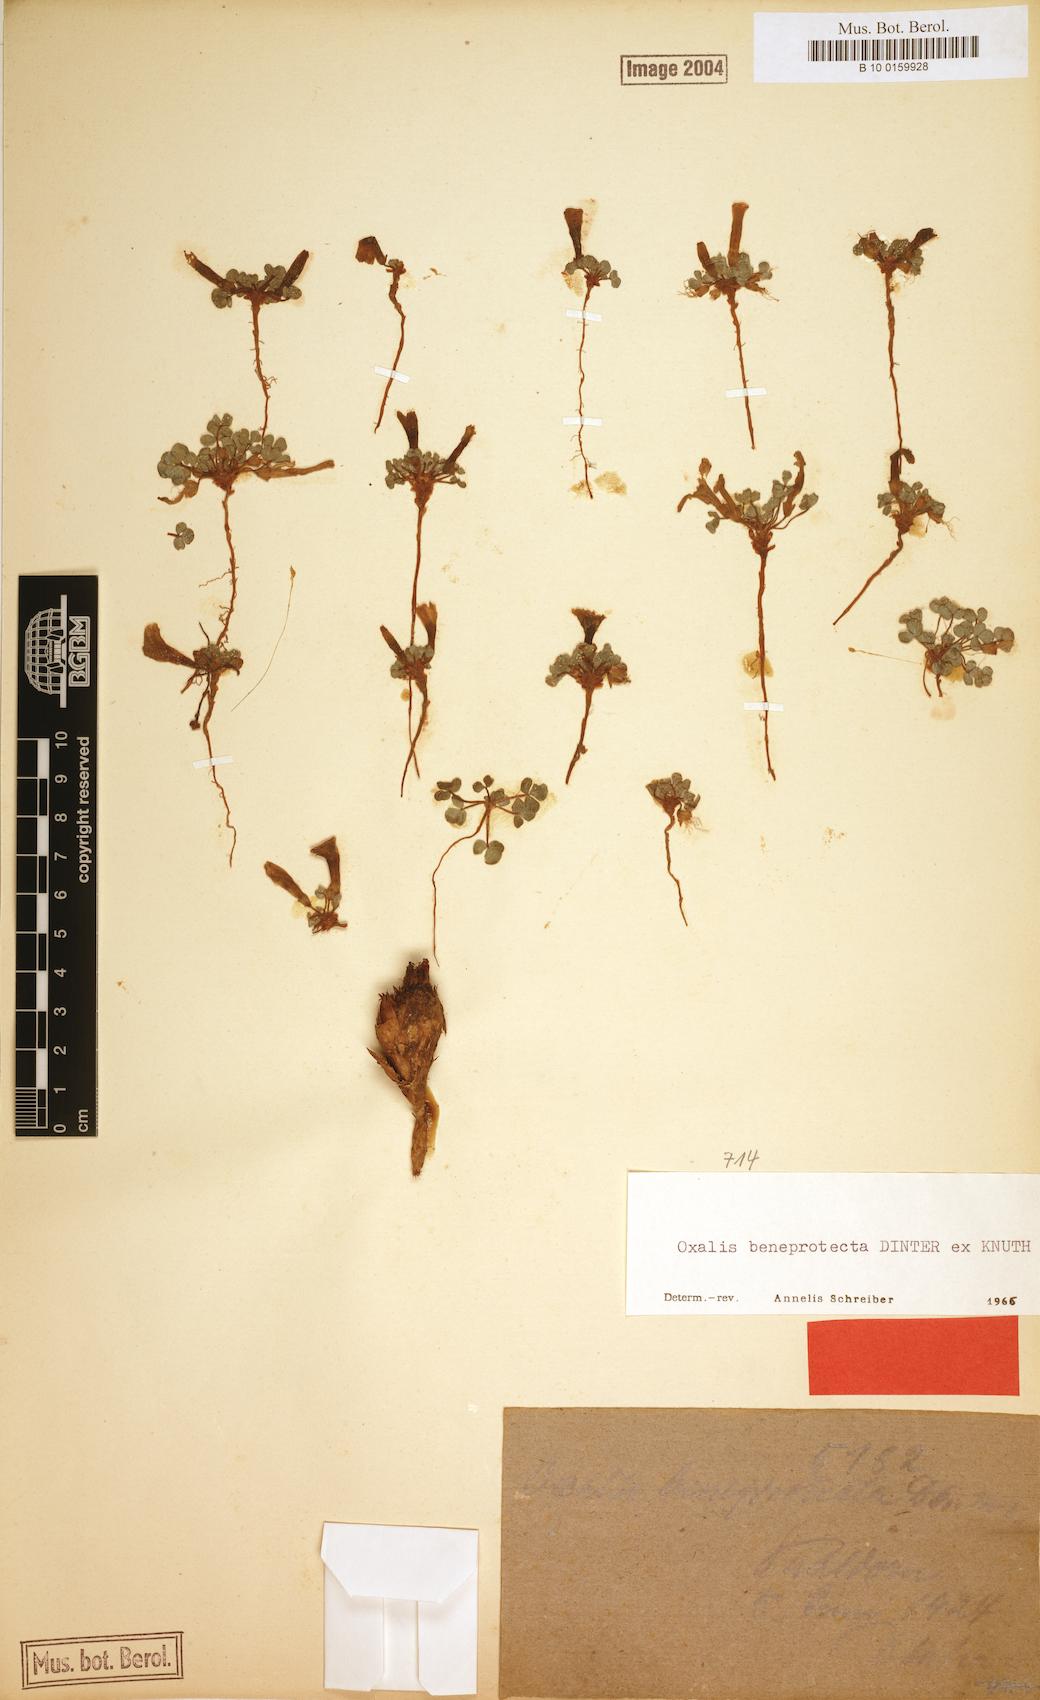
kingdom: Plantae
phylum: Tracheophyta
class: Magnoliopsida
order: Oxalidales
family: Oxalidaceae
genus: Oxalis
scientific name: Oxalis pulchella
